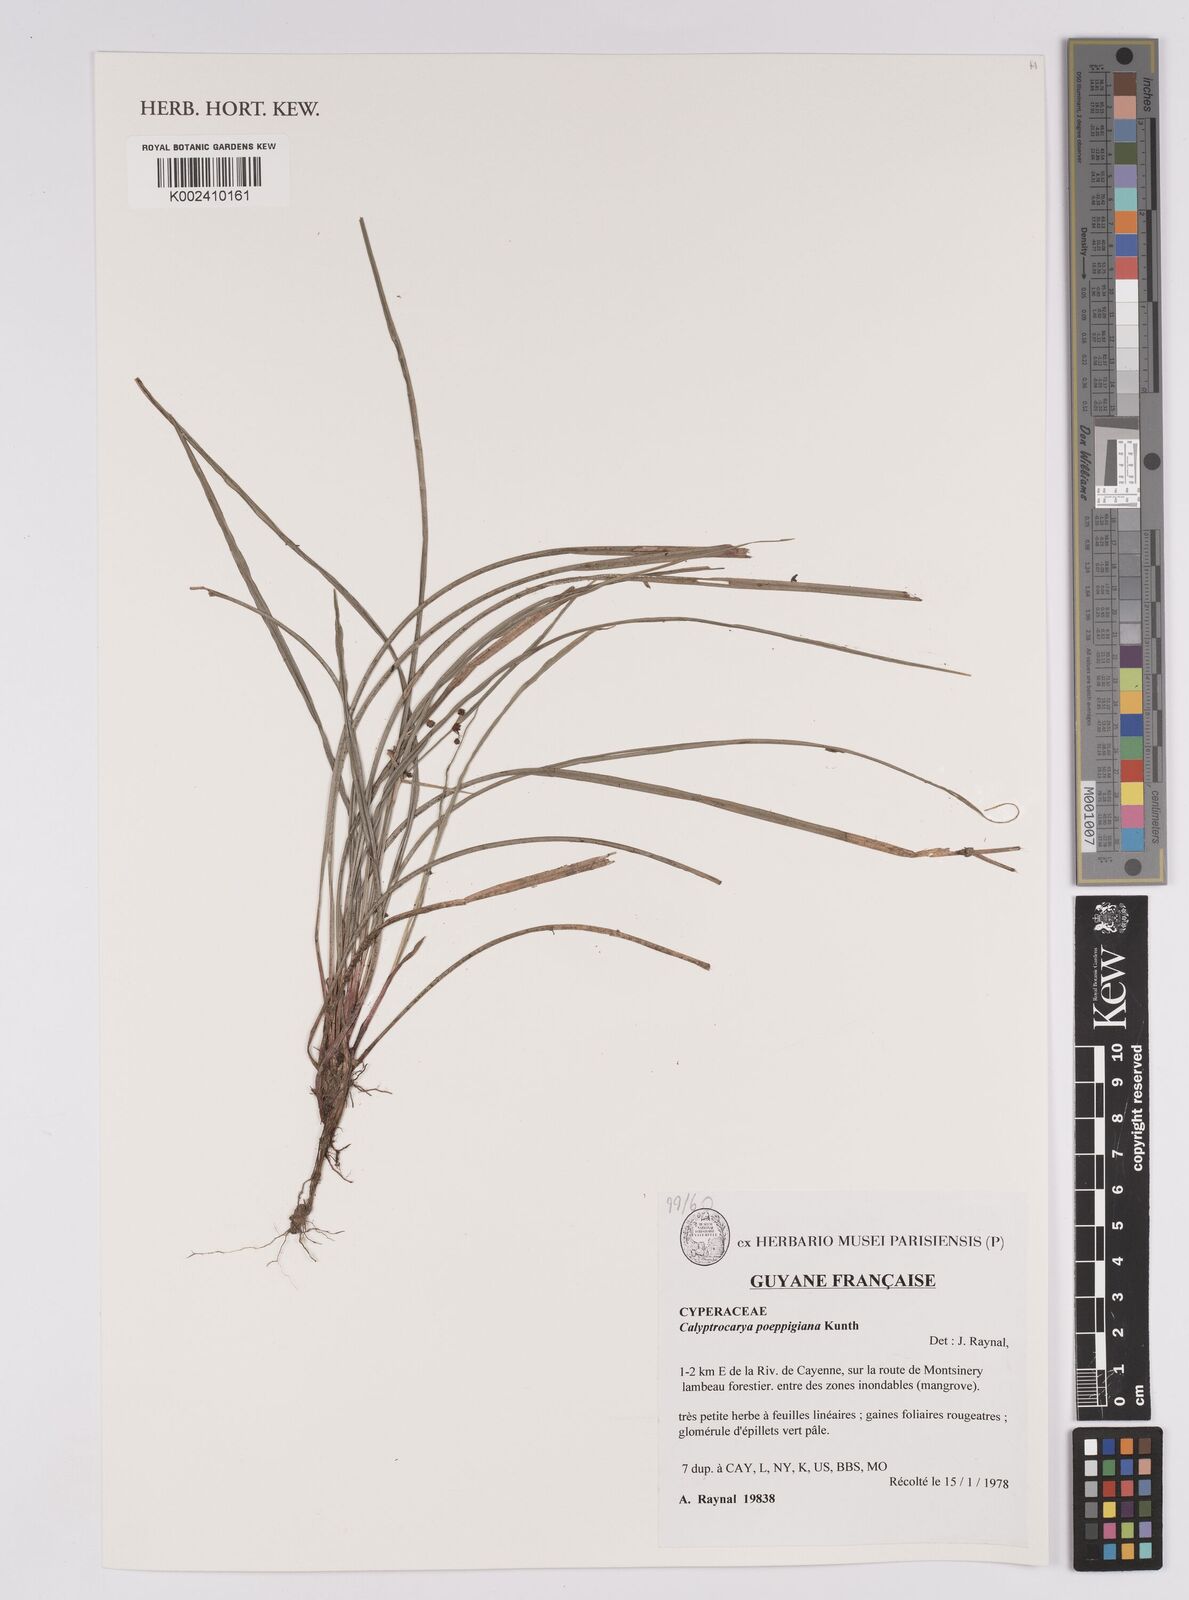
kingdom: Plantae
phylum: Tracheophyta
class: Liliopsida
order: Poales
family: Cyperaceae
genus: Calyptrocarya
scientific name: Calyptrocarya poeppigiana
